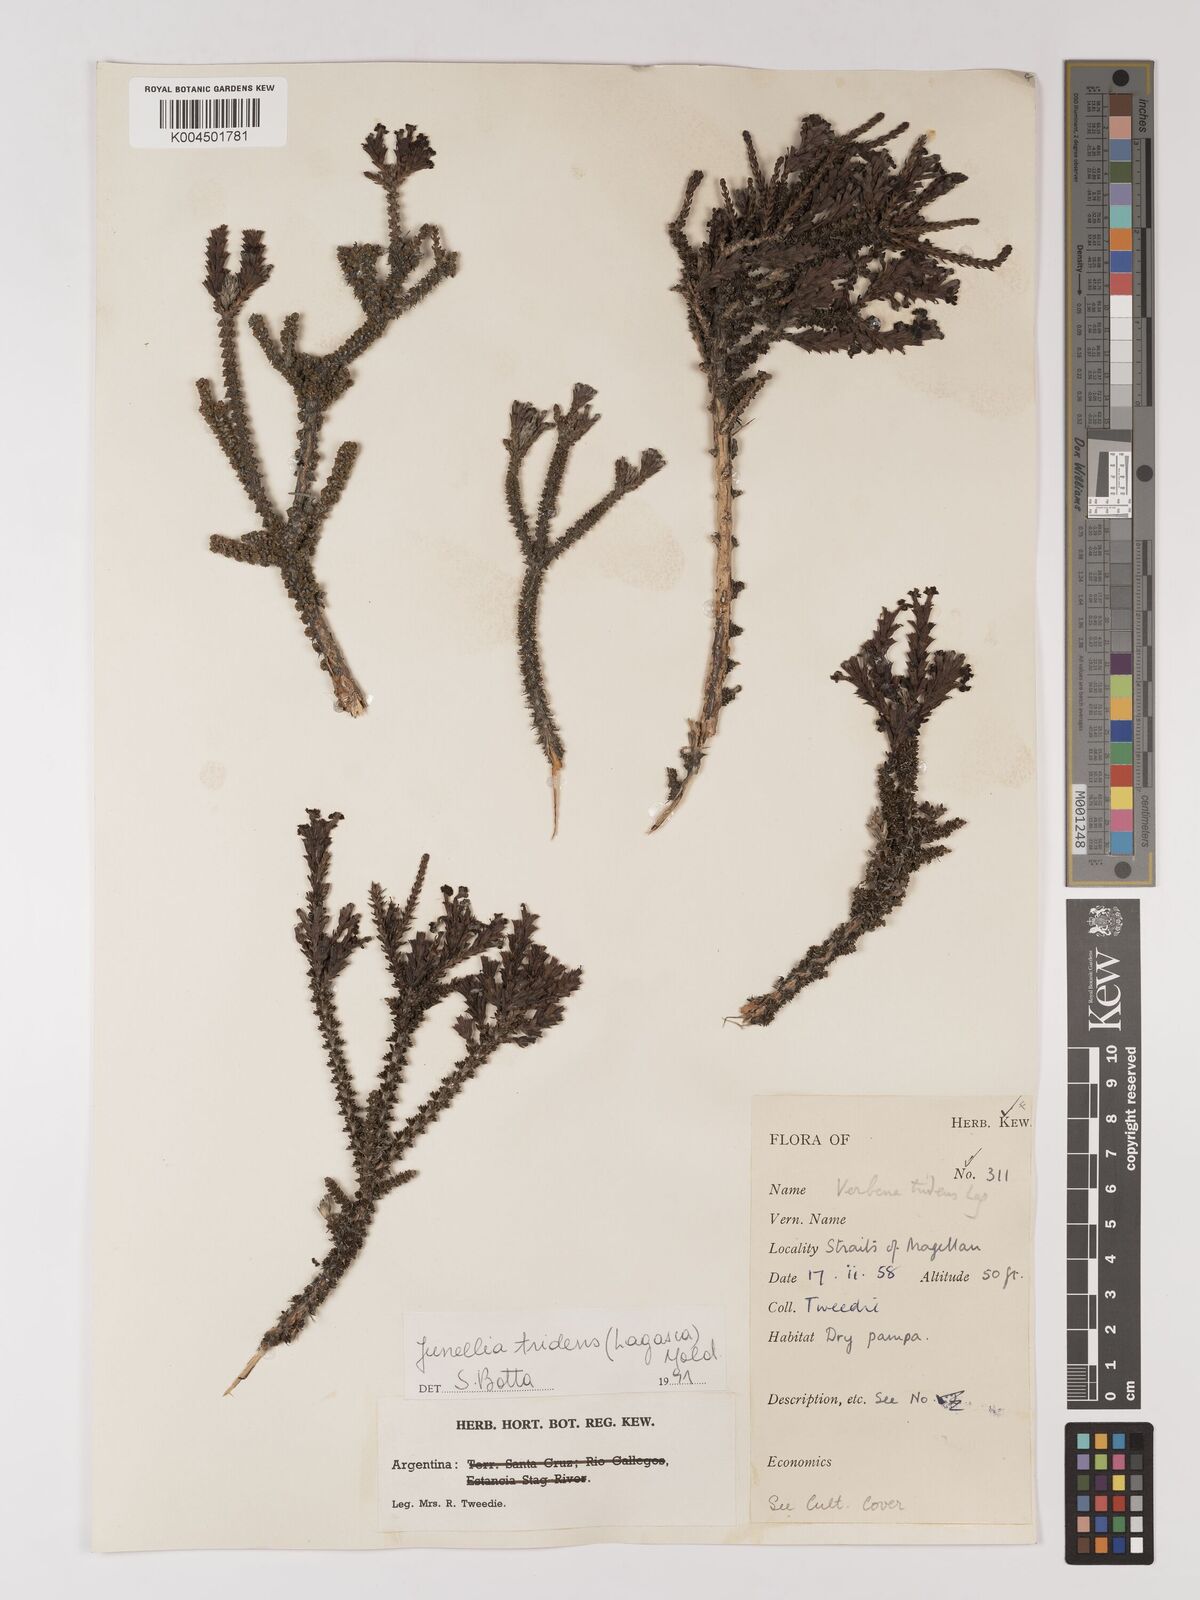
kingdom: Plantae
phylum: Tracheophyta
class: Magnoliopsida
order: Lamiales
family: Verbenaceae
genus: Mulguraea
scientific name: Mulguraea tridens
